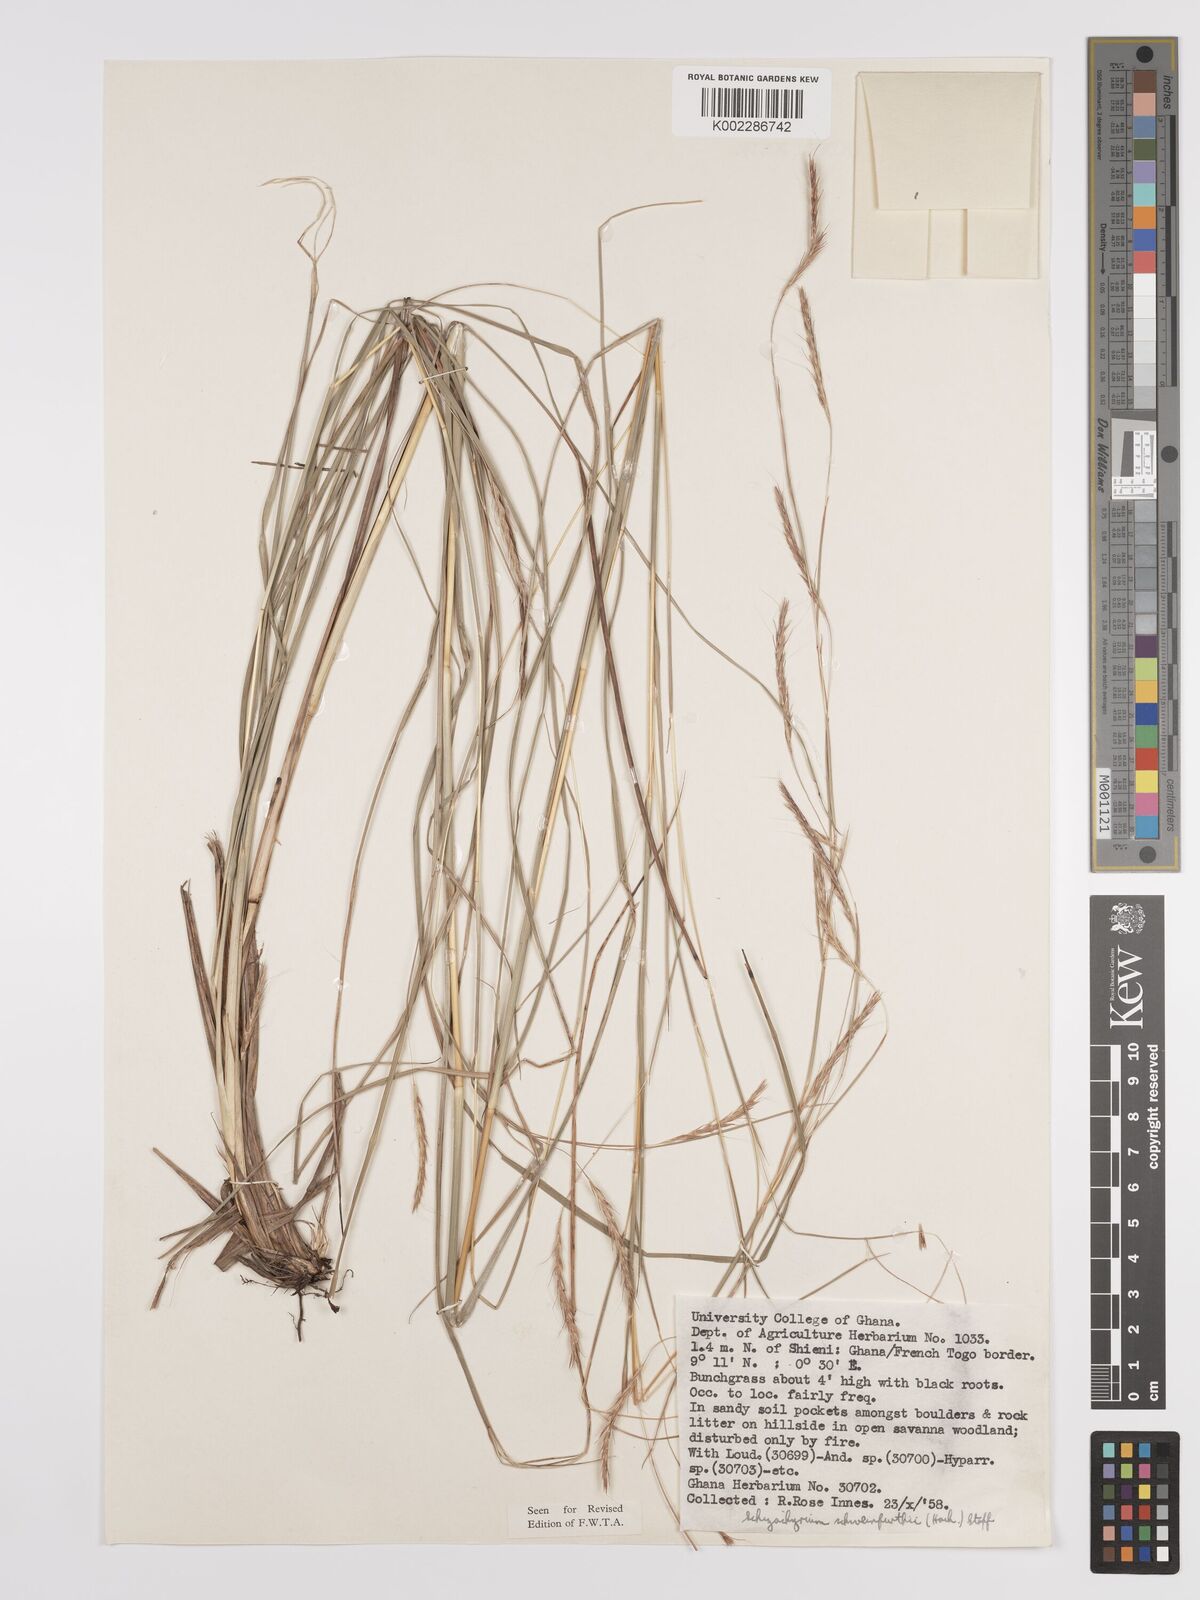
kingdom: Plantae
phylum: Tracheophyta
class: Liliopsida
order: Poales
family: Poaceae
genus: Andropogon
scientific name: Andropogon schweinfurthii
